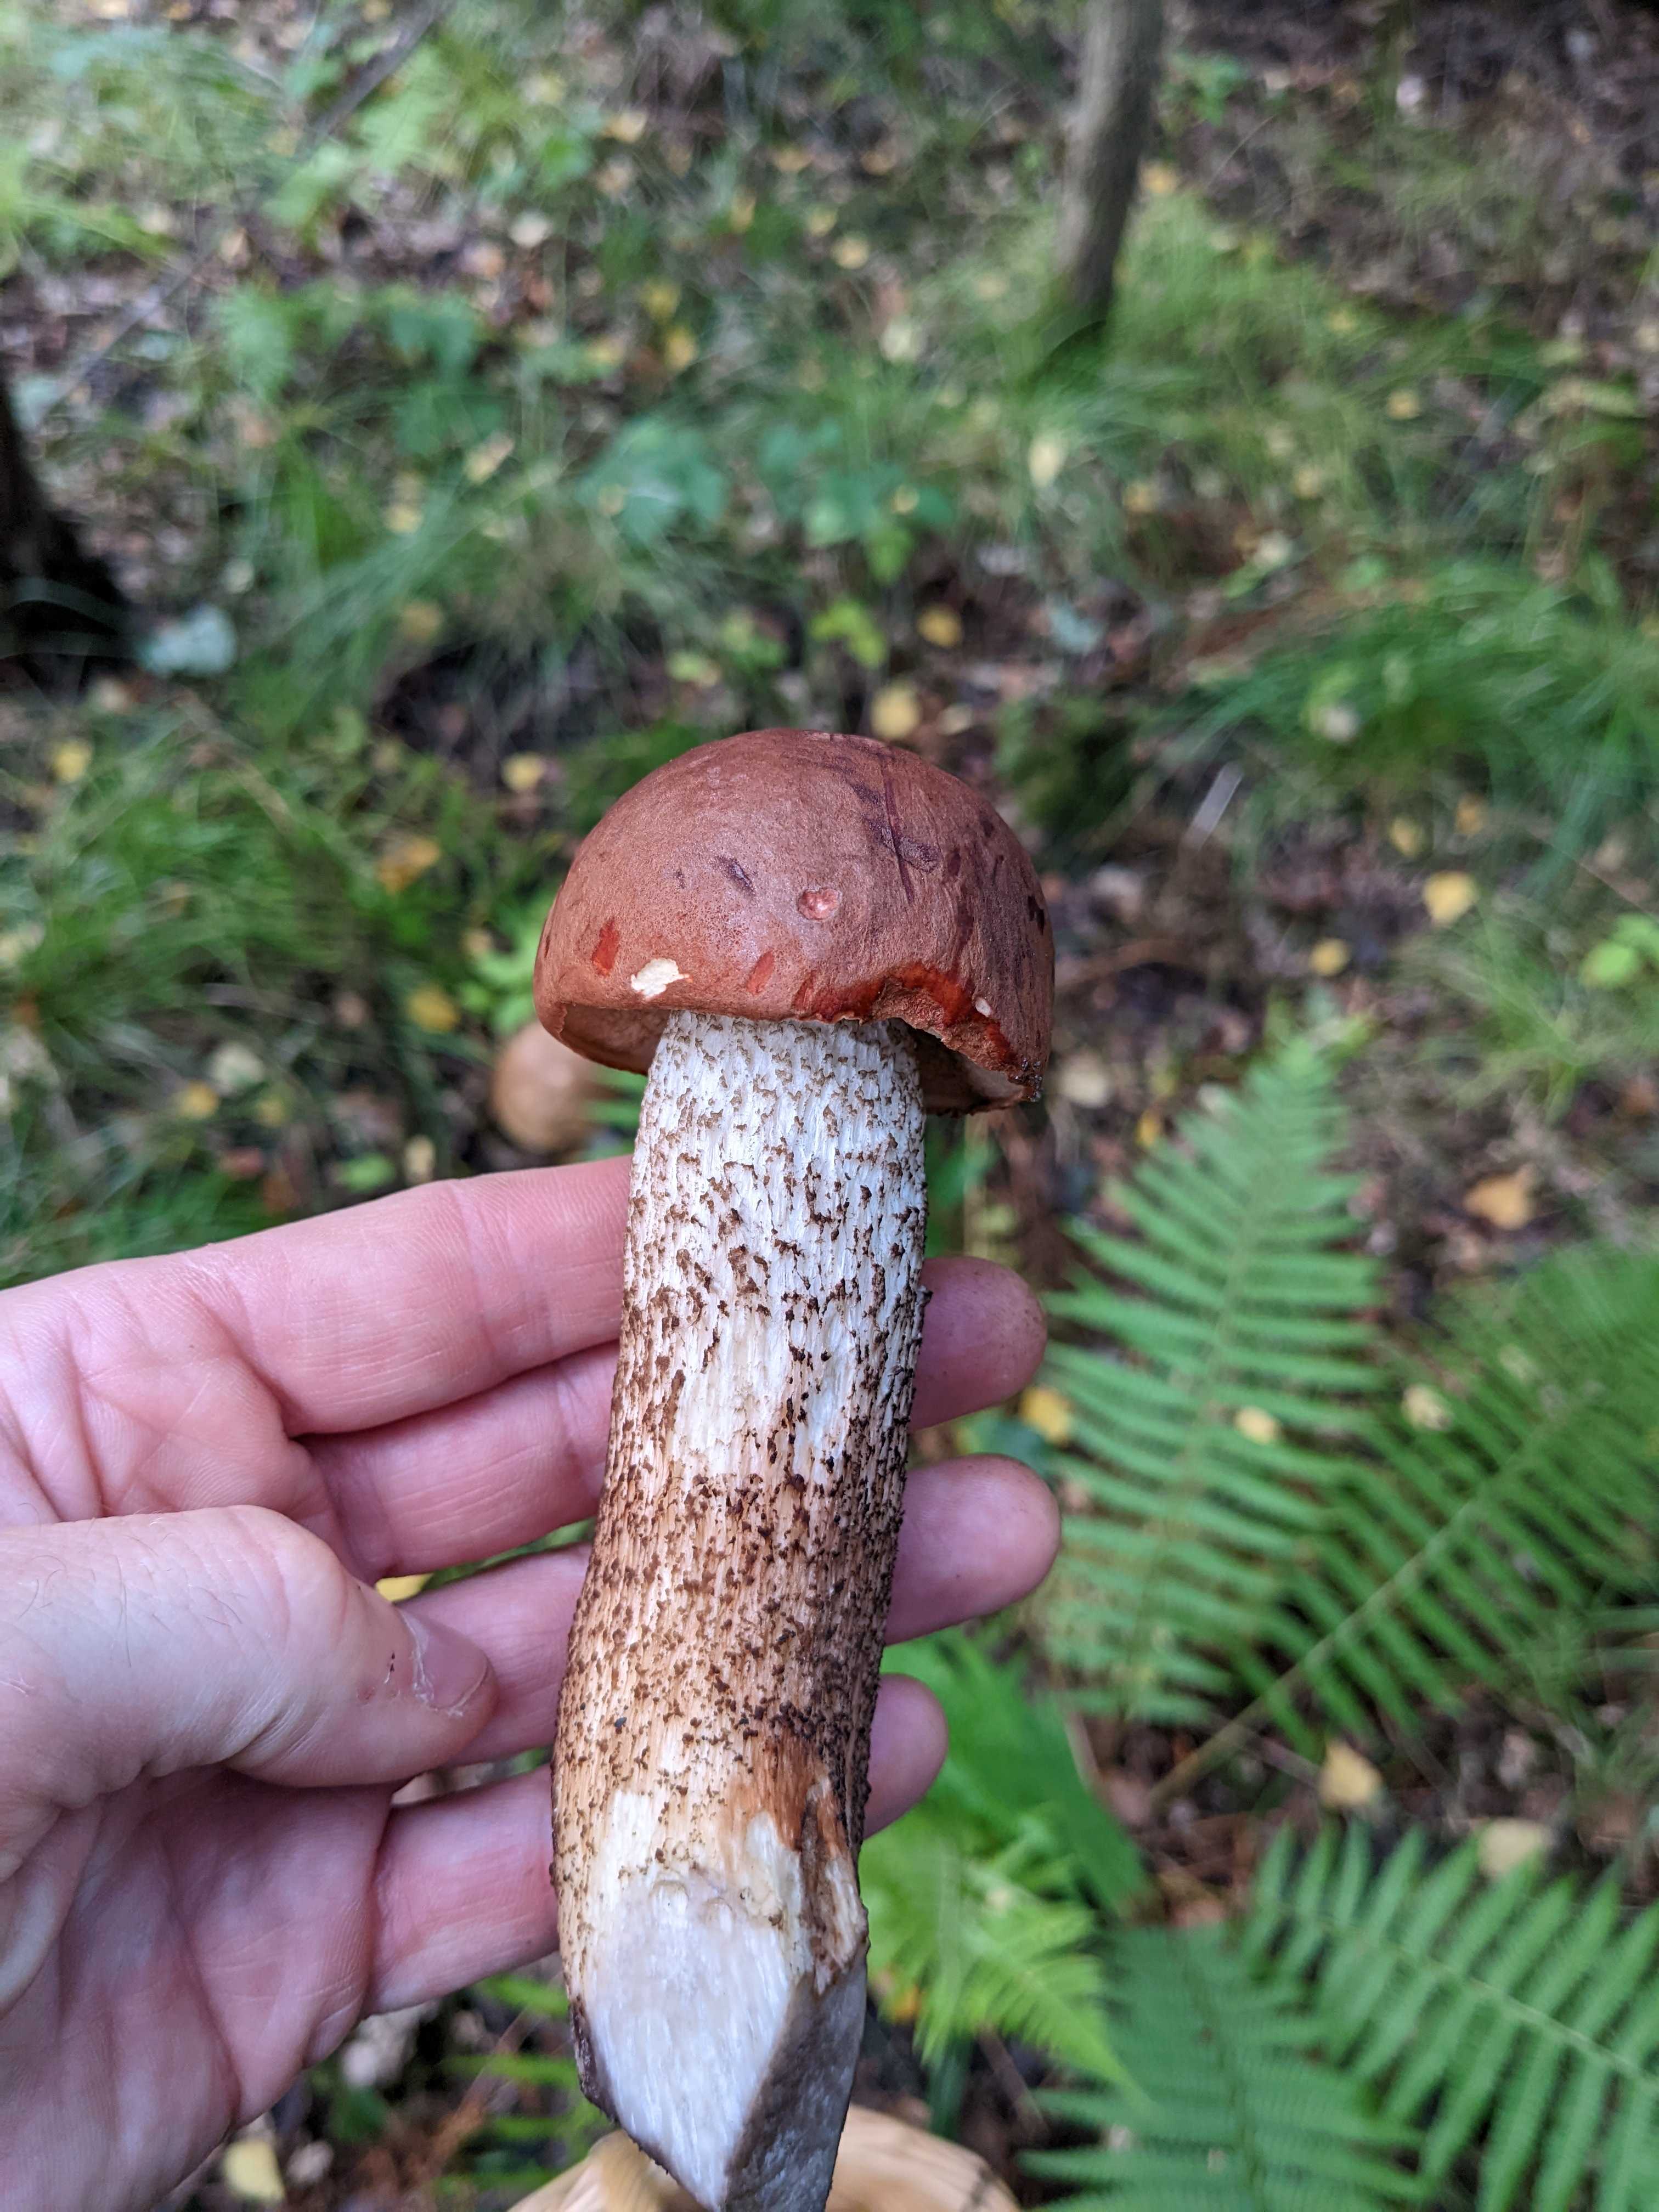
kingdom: Fungi
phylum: Basidiomycota
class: Agaricomycetes
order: Boletales
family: Boletaceae
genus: Leccinum
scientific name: Leccinum scabrum
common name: brun skælrørhat
